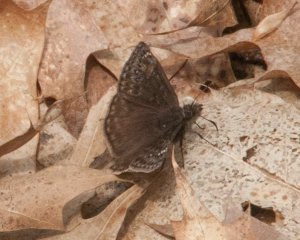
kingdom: Animalia
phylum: Arthropoda
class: Insecta
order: Lepidoptera
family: Hesperiidae
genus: Gesta
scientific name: Gesta
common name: Columbine Duskywing
